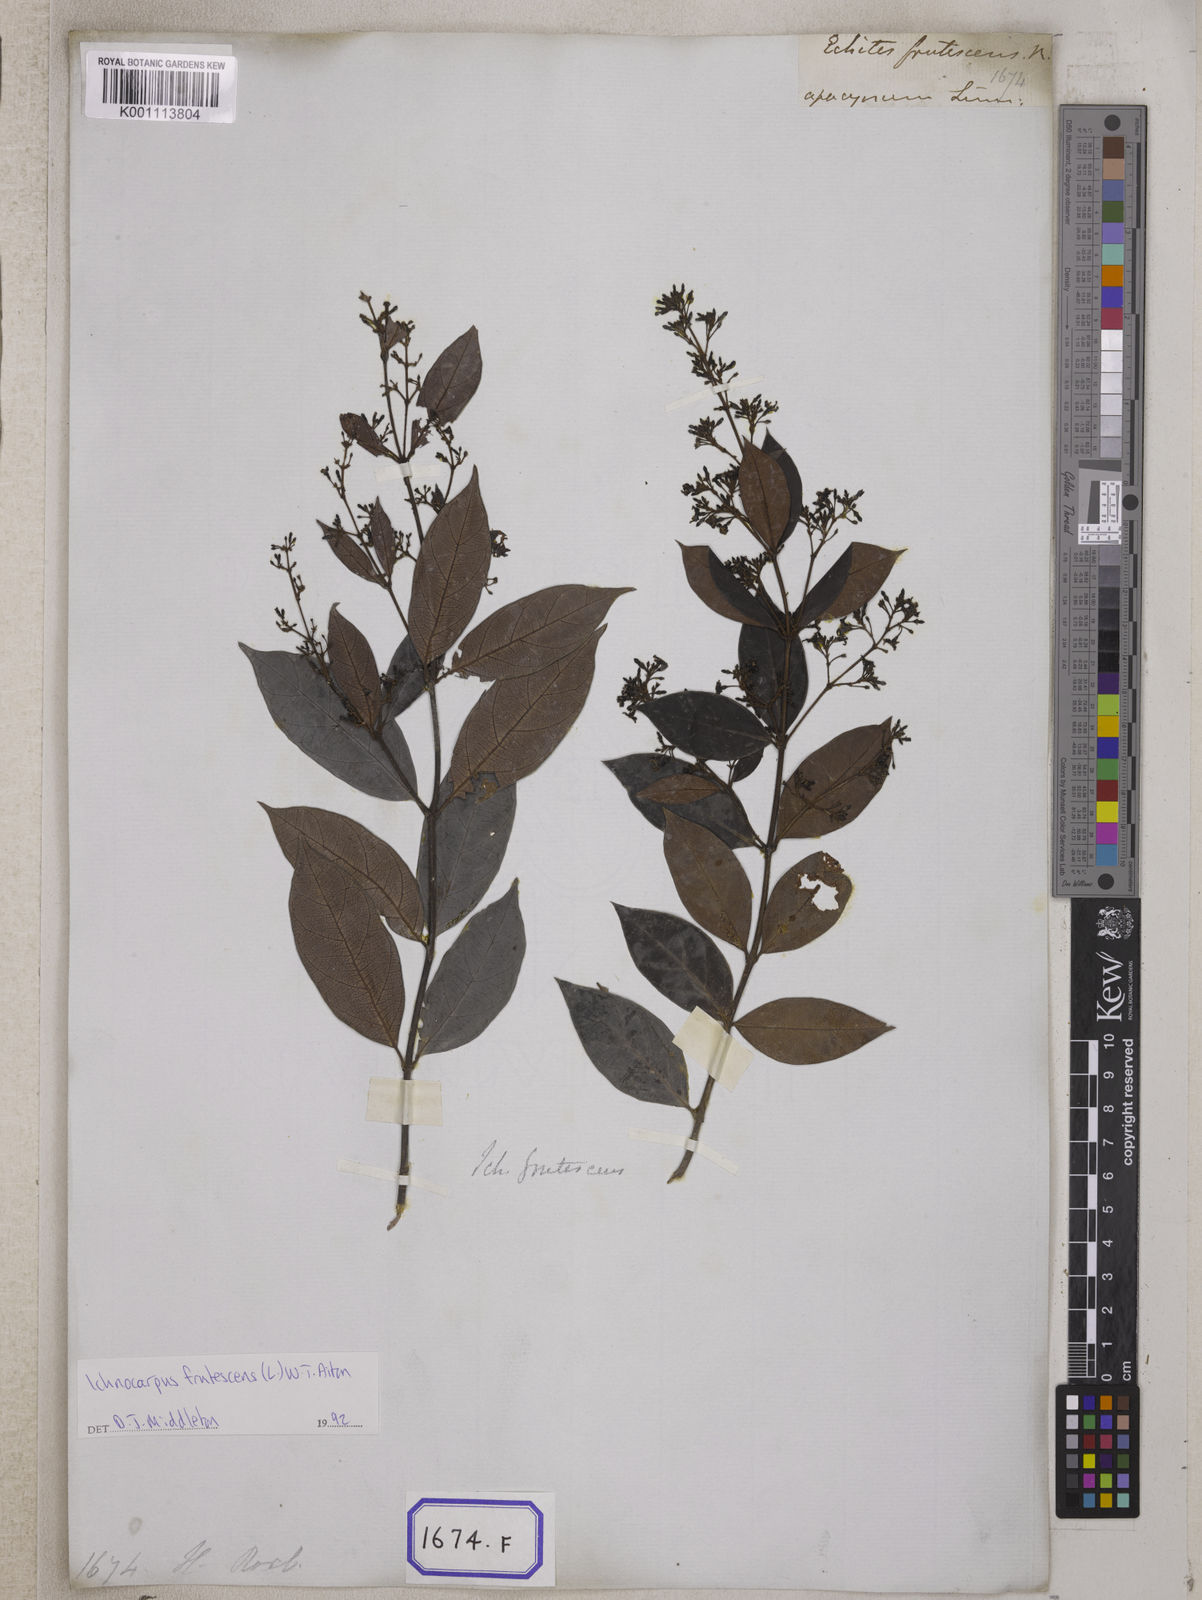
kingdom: Plantae
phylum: Tracheophyta
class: Magnoliopsida
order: Gentianales
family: Apocynaceae
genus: Ichnocarpus
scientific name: Ichnocarpus
